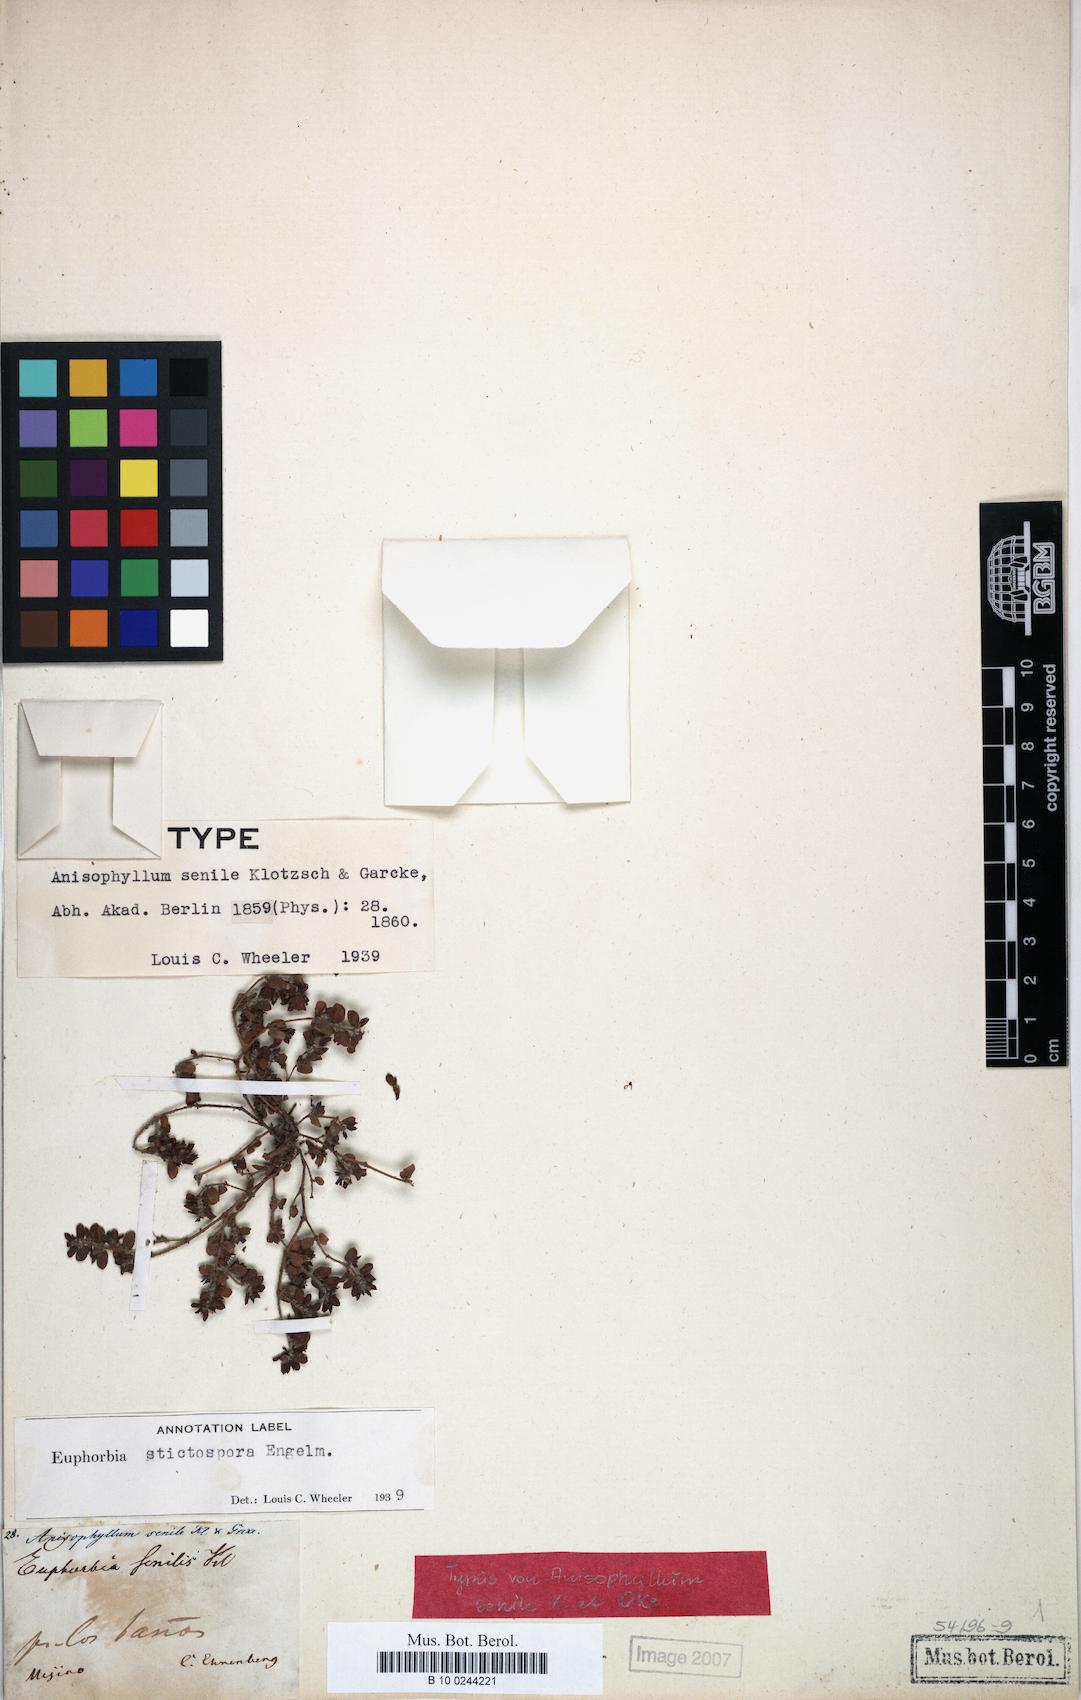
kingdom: Plantae
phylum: Tracheophyta
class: Magnoliopsida
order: Malpighiales
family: Euphorbiaceae
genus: Euphorbia
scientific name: Euphorbia stictospora
